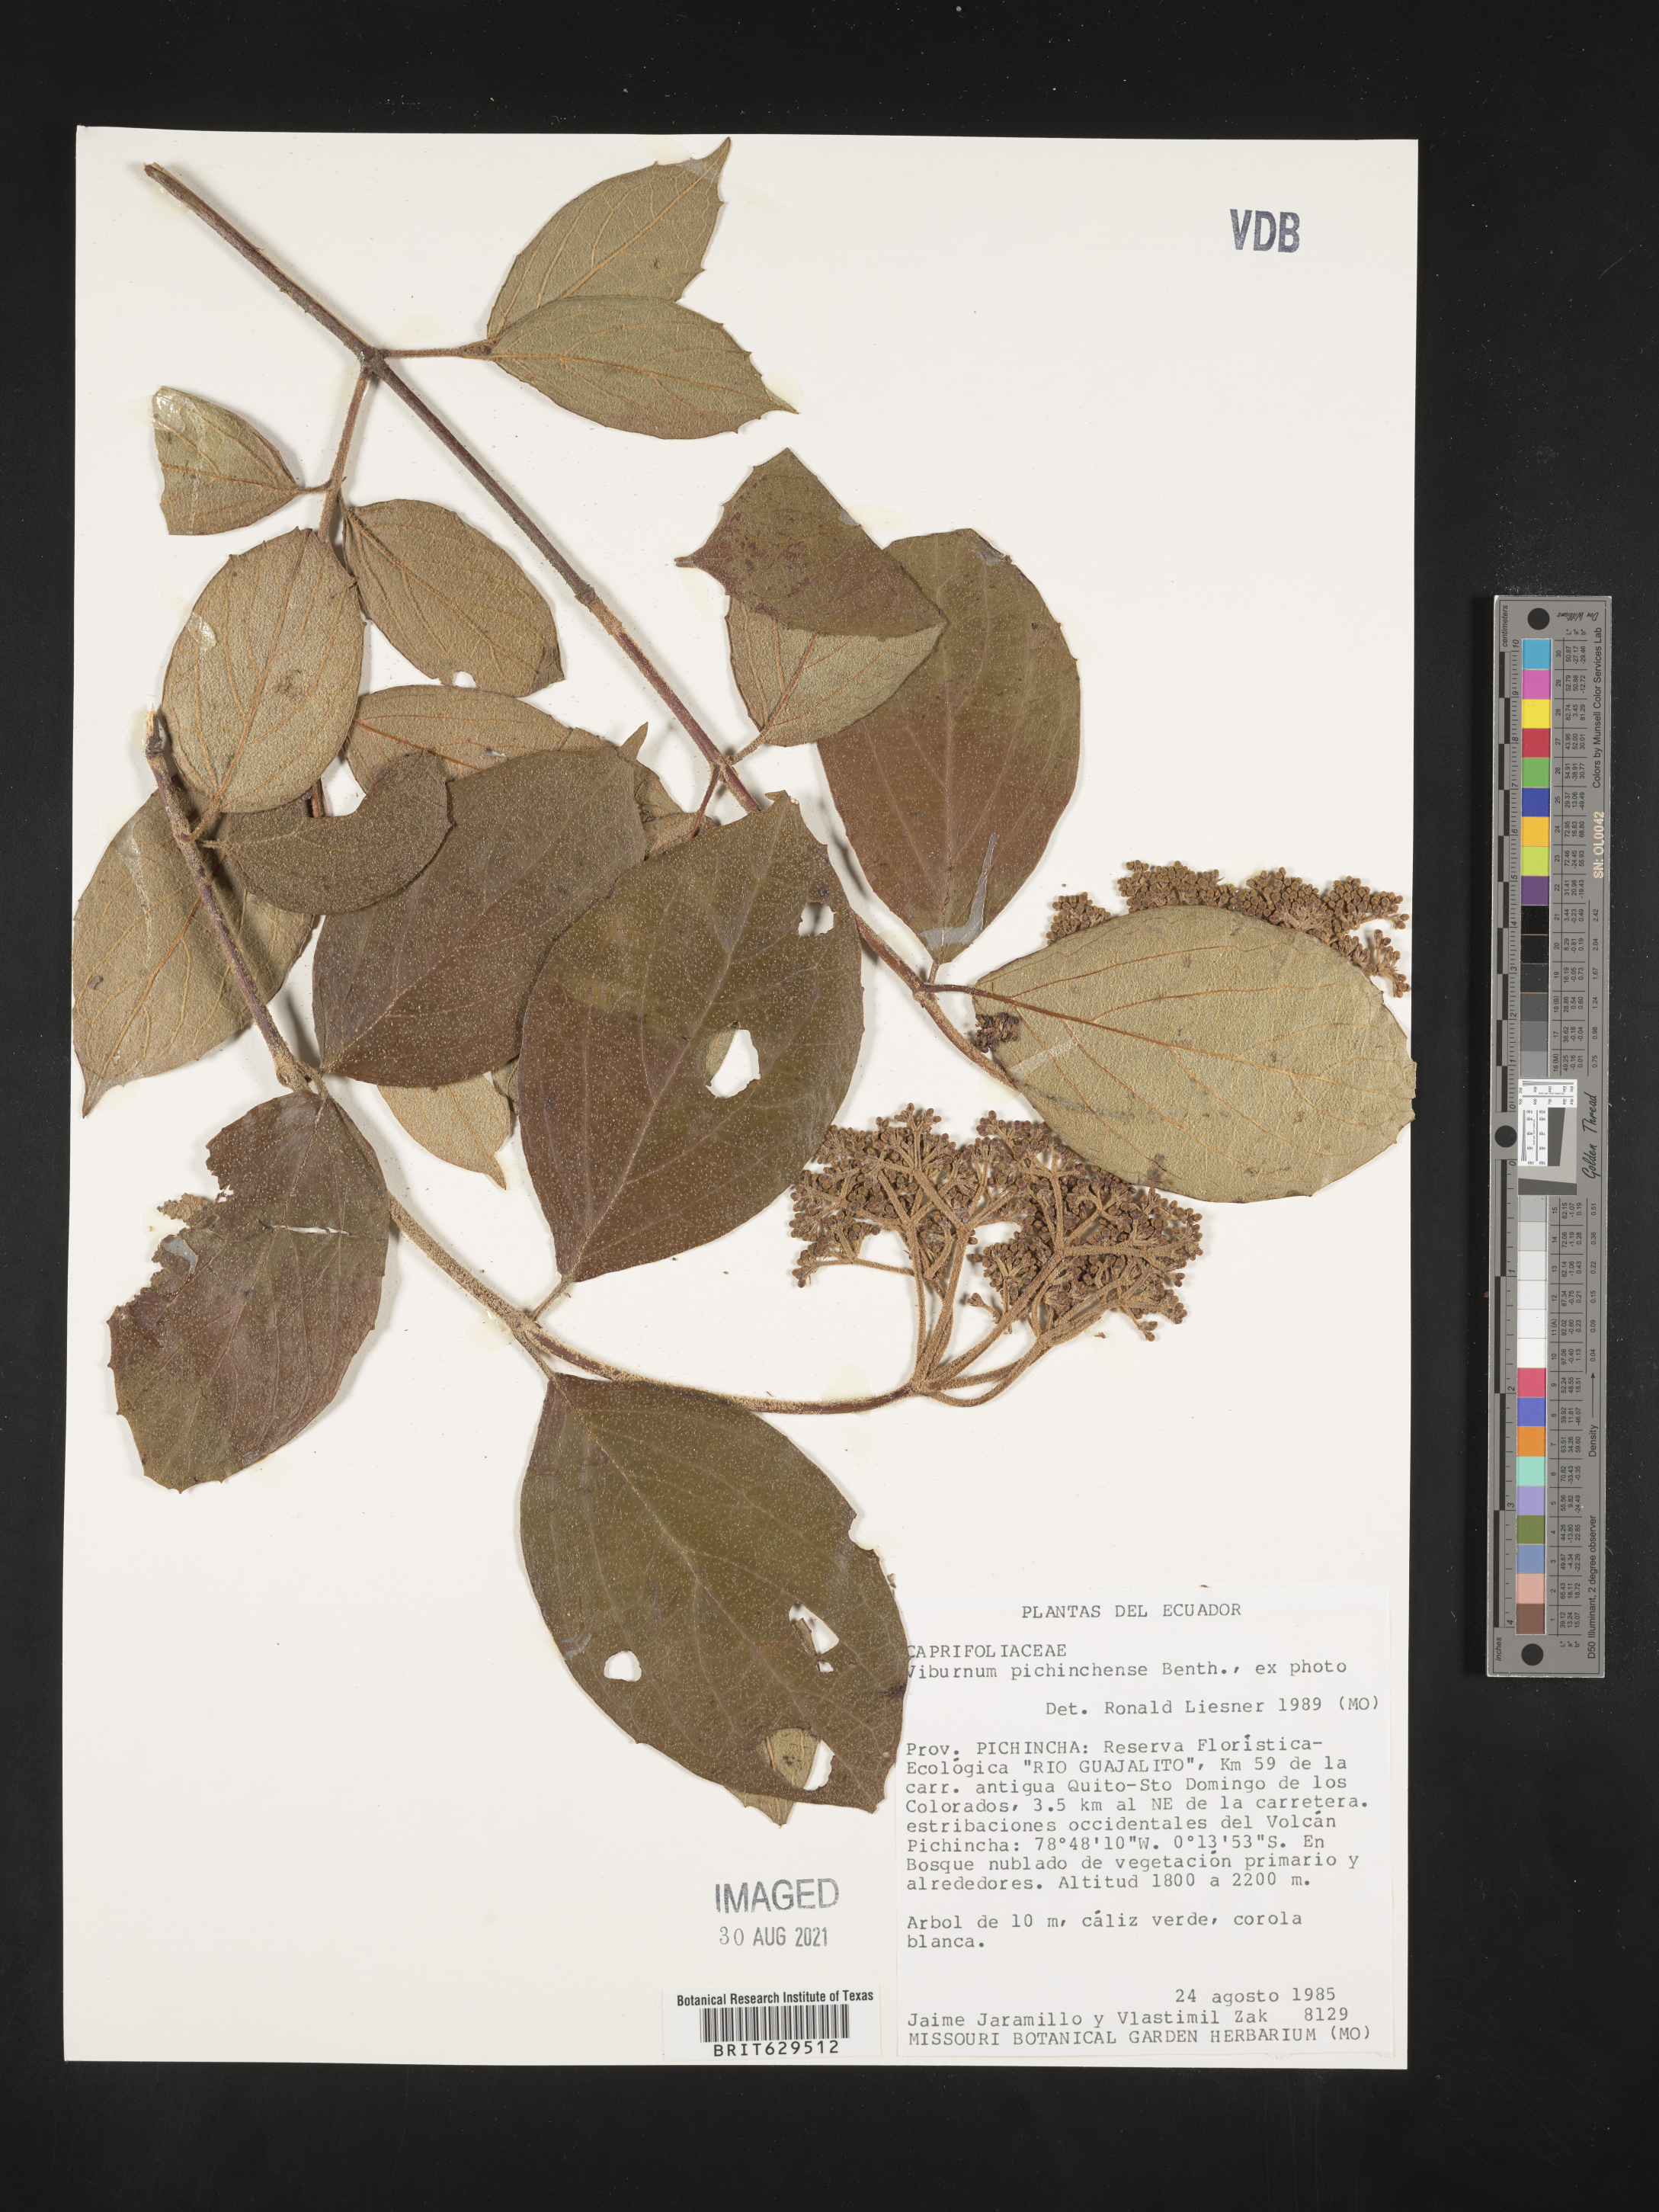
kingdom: Plantae
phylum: Tracheophyta
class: Magnoliopsida
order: Dipsacales
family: Viburnaceae
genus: Viburnum
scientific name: Viburnum pichinchense
